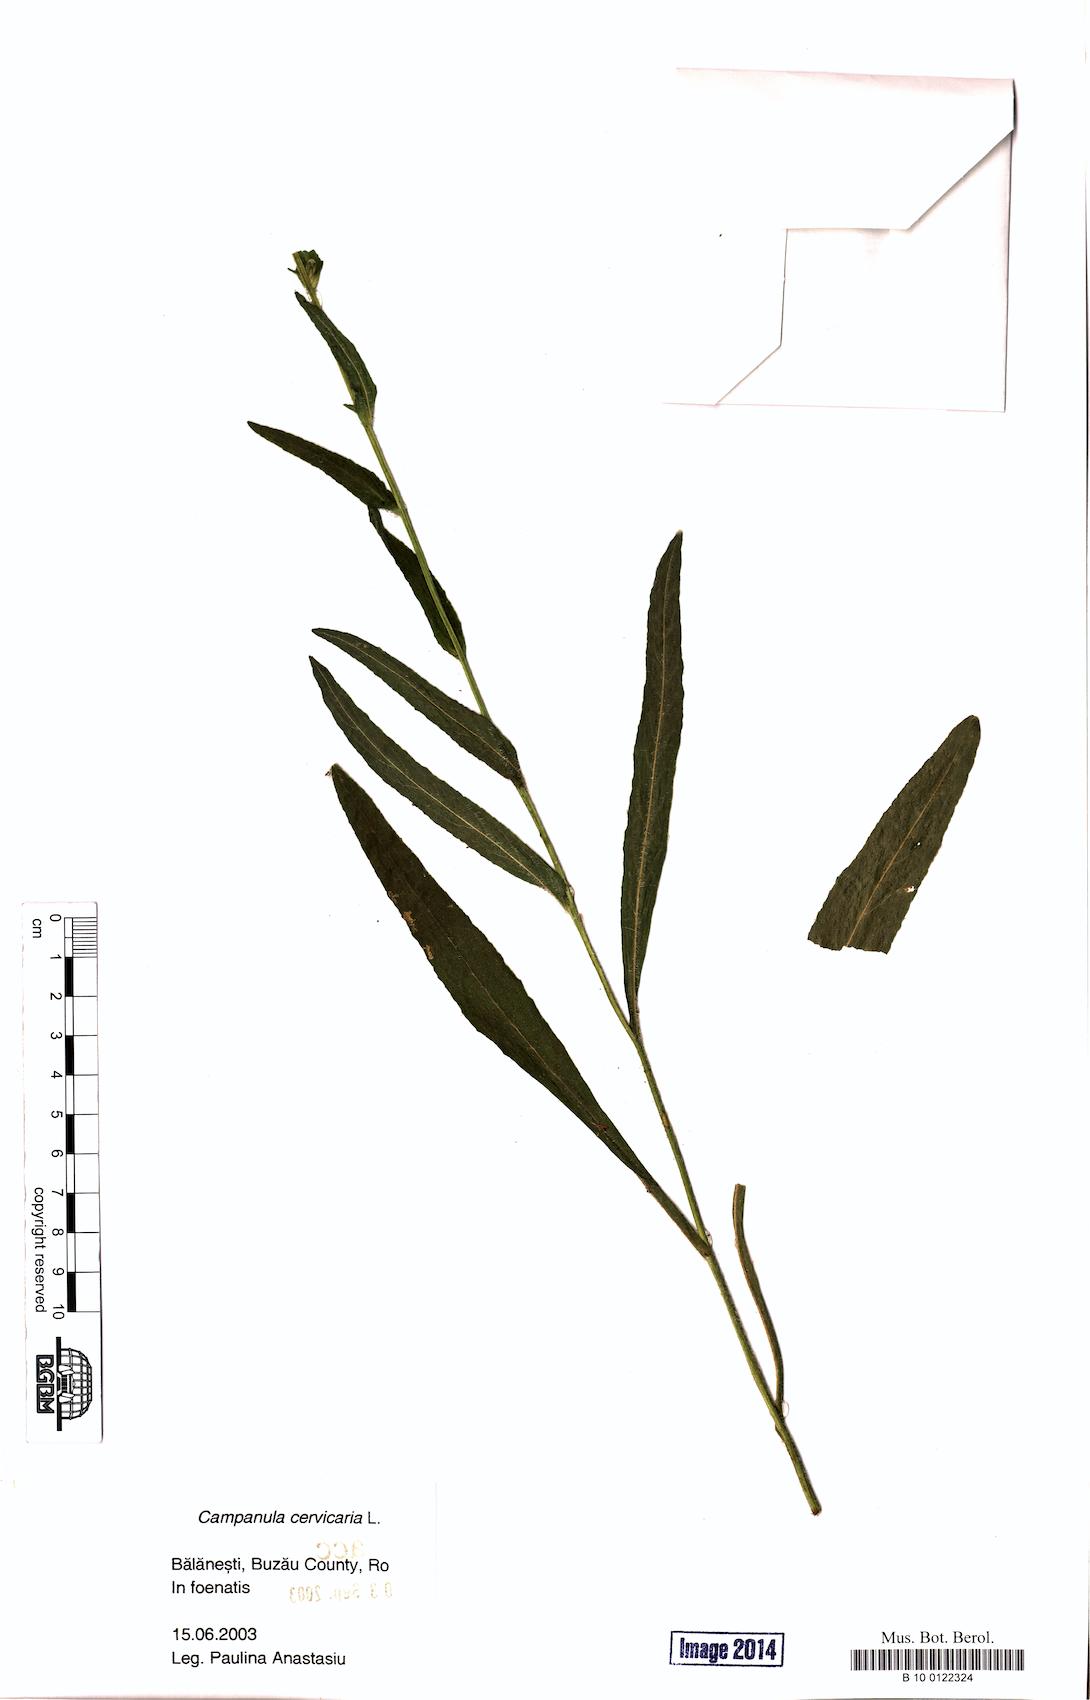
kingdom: Plantae
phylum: Tracheophyta
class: Magnoliopsida
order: Asterales
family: Campanulaceae
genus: Campanula
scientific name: Campanula cervicaria
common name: Bristly bellflower
